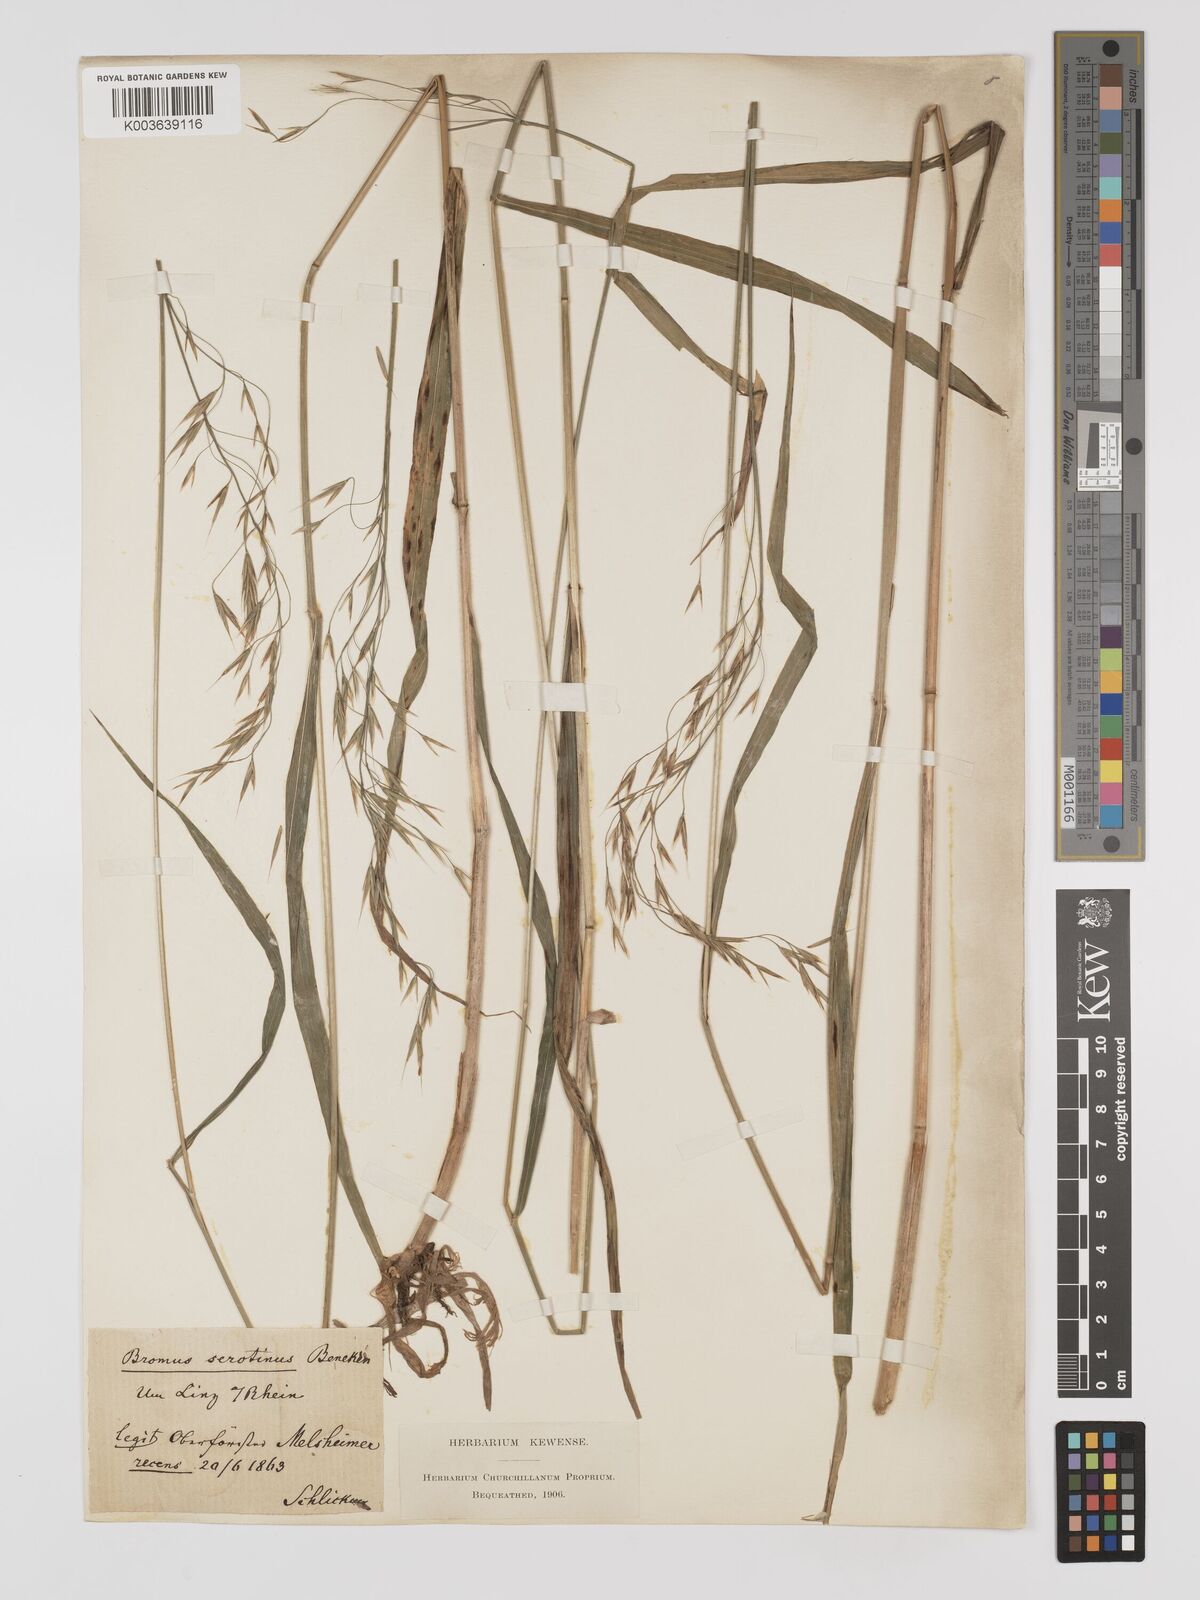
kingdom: Plantae
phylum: Tracheophyta
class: Liliopsida
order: Poales
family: Poaceae
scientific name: Poaceae
